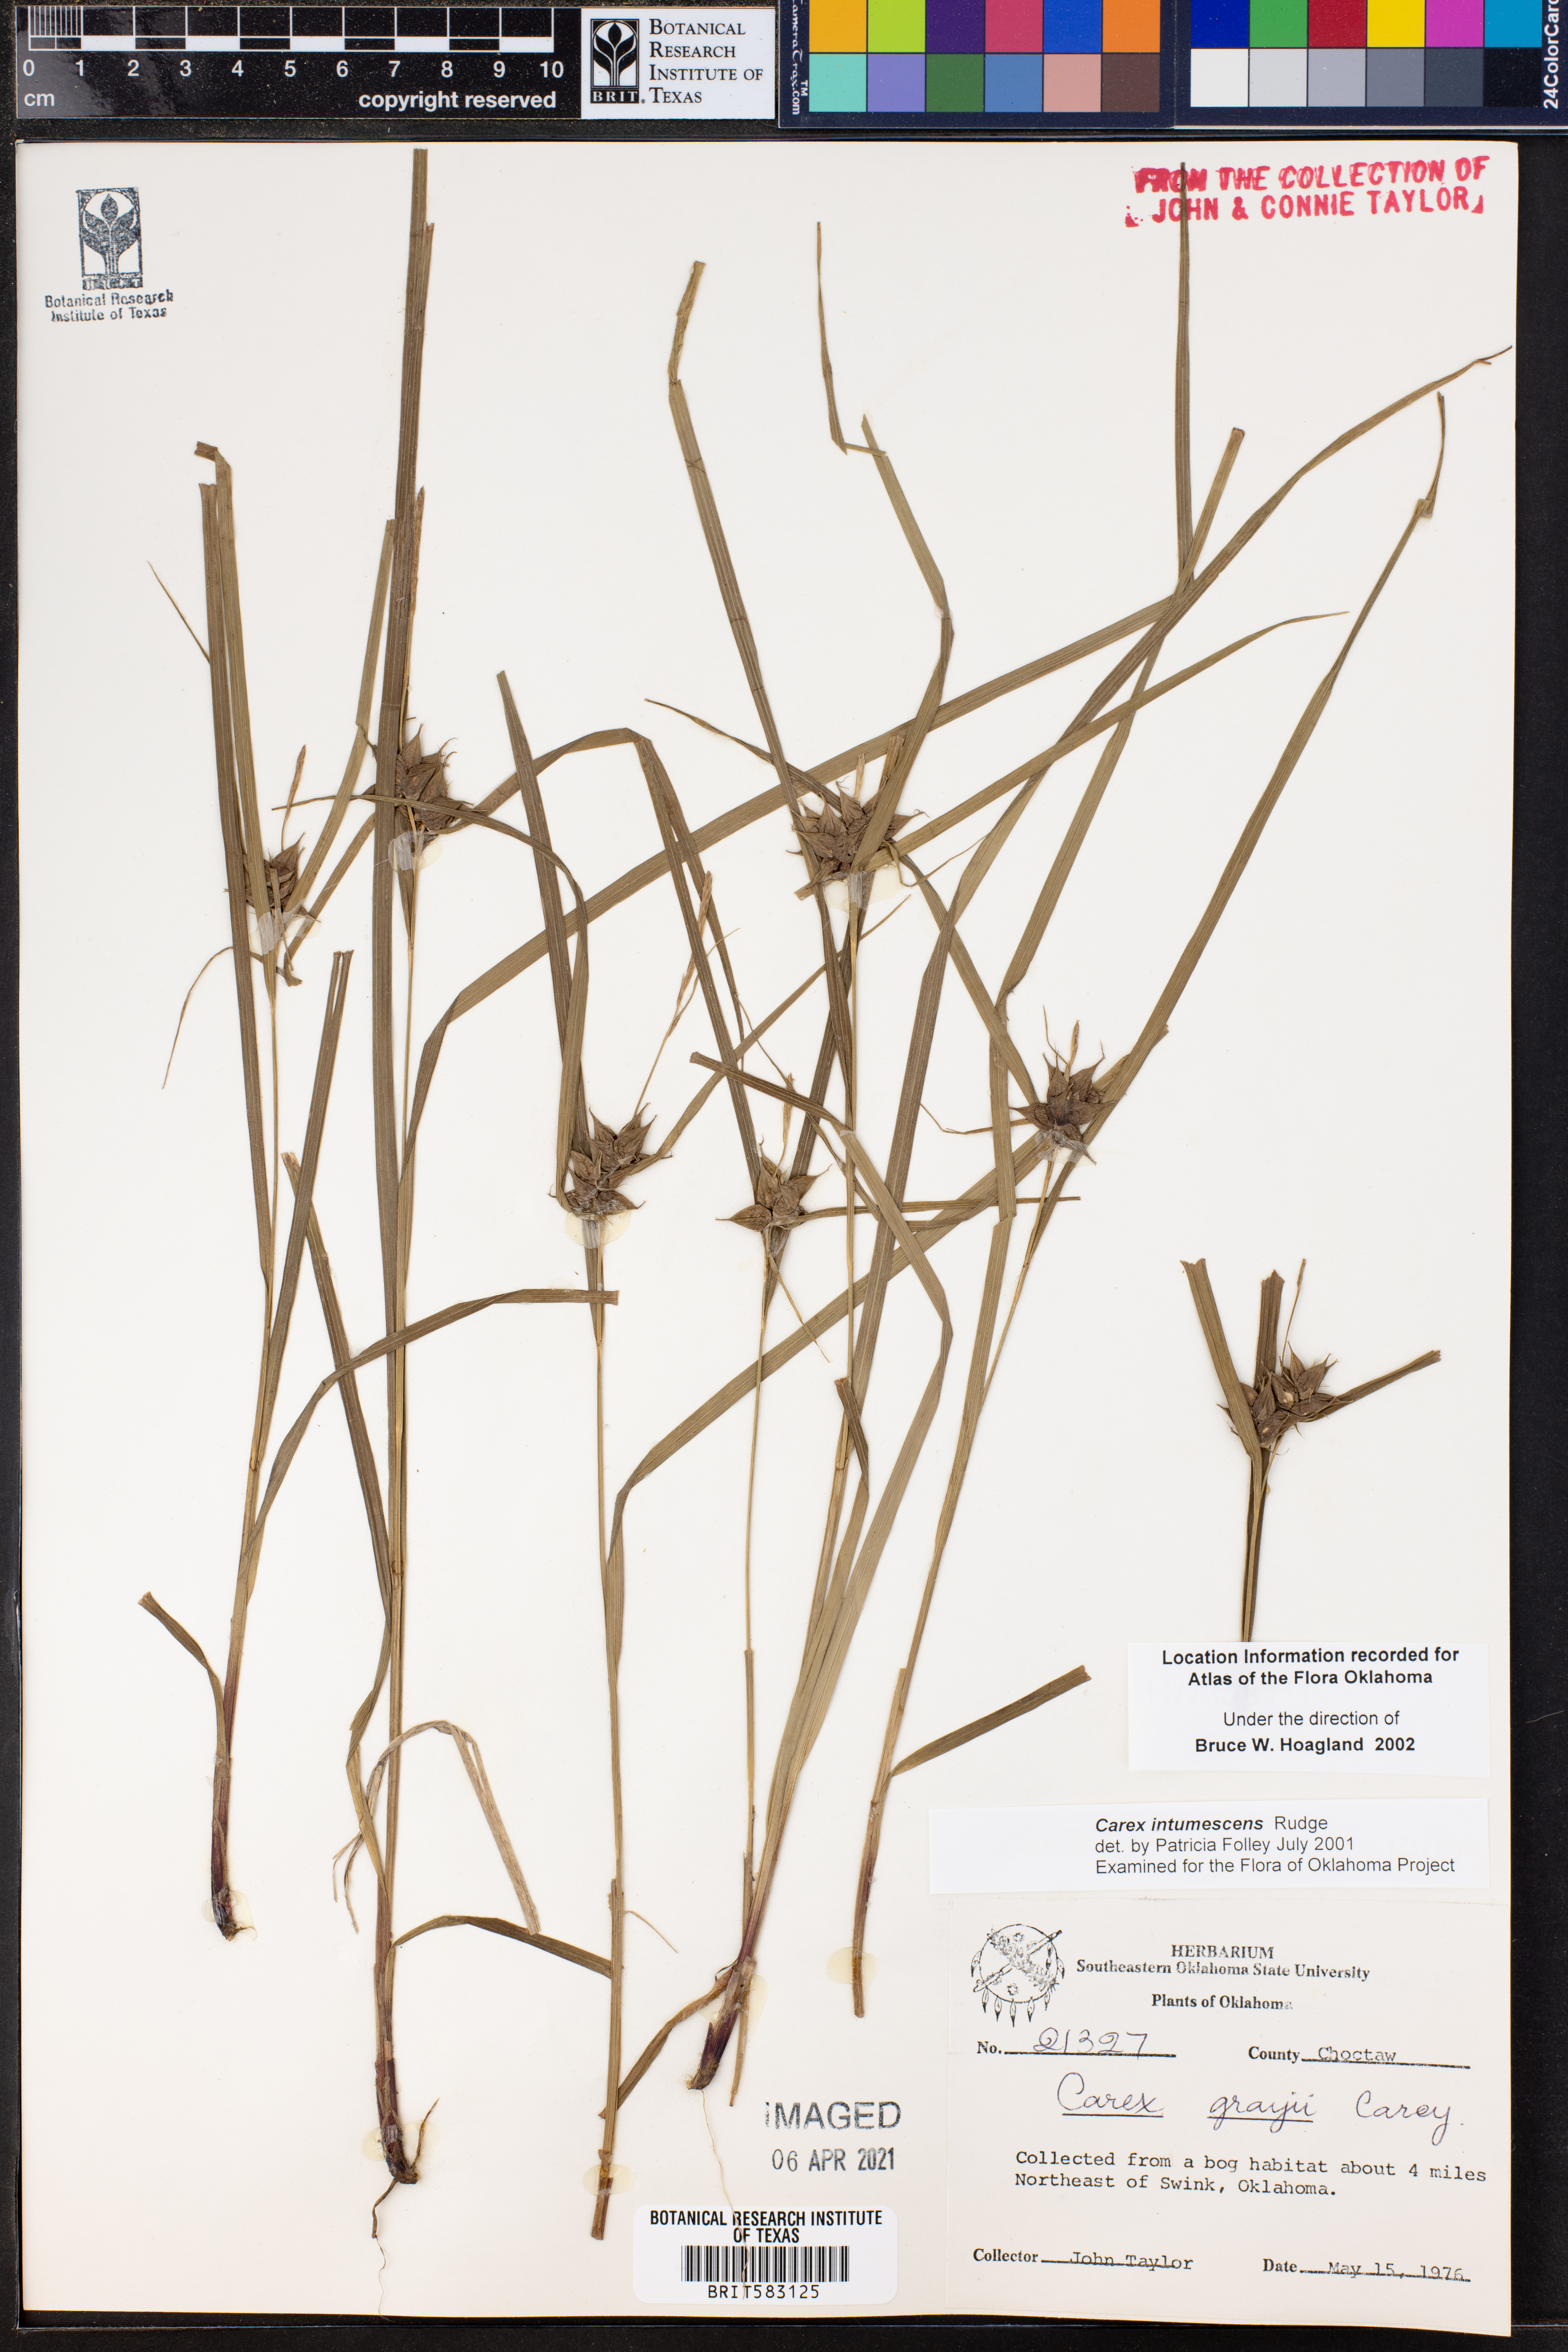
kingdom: Plantae
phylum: Tracheophyta
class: Liliopsida
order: Poales
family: Cyperaceae
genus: Carex
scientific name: Carex intumescens
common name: Greater bladder sedge
